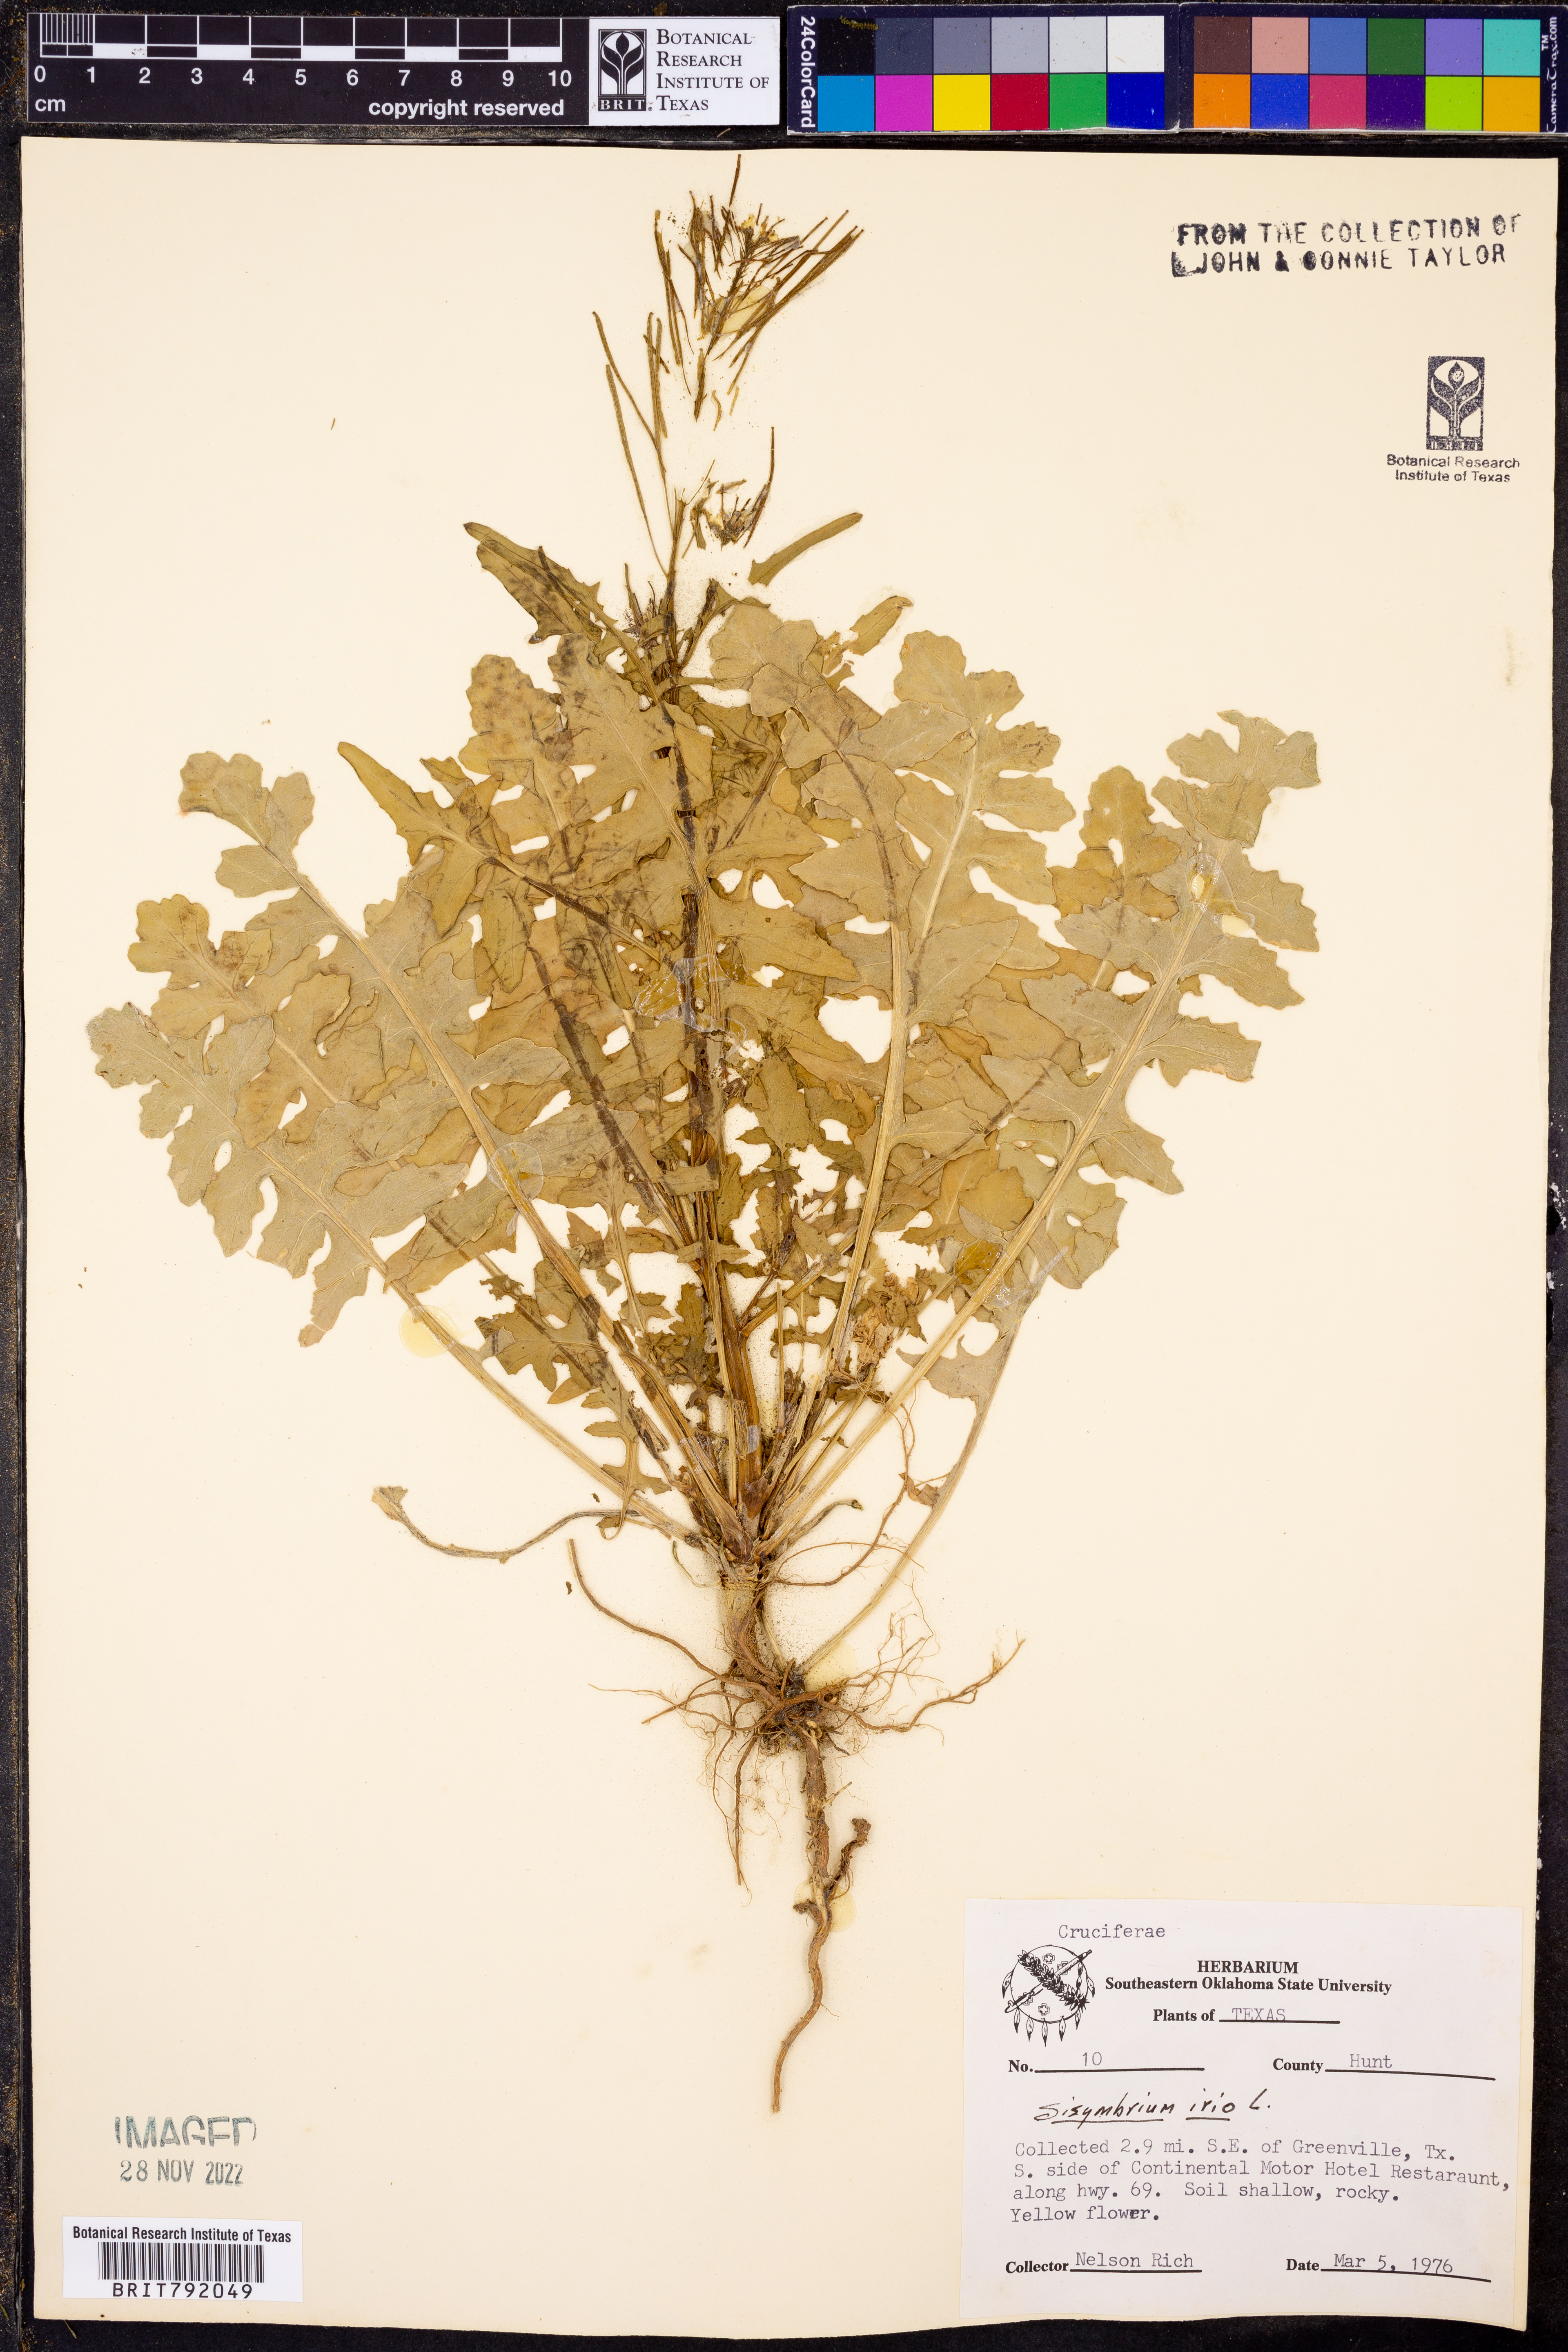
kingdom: Plantae
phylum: Tracheophyta
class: Magnoliopsida
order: Brassicales
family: Brassicaceae
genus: Sisymbrium
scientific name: Sisymbrium irio
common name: London rocket
